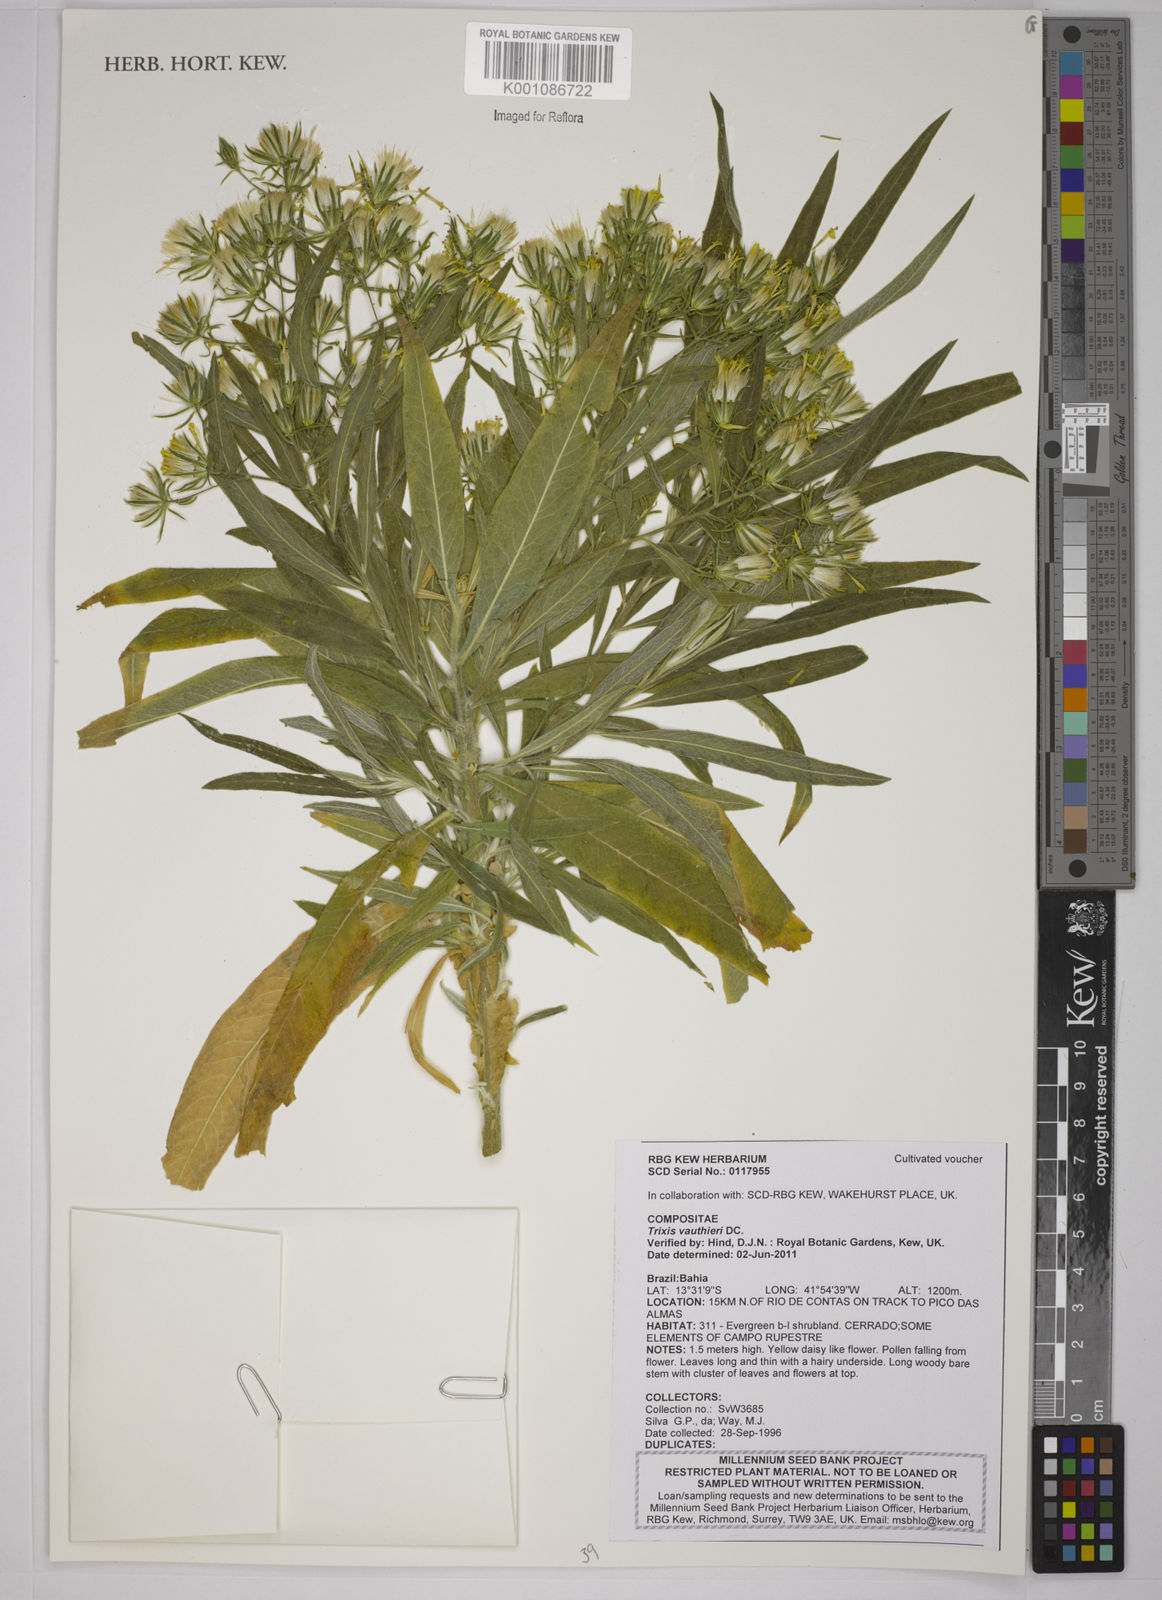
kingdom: Plantae
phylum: Tracheophyta
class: Magnoliopsida
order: Asterales
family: Asteraceae
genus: Trixis
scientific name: Trixis vauthieri
